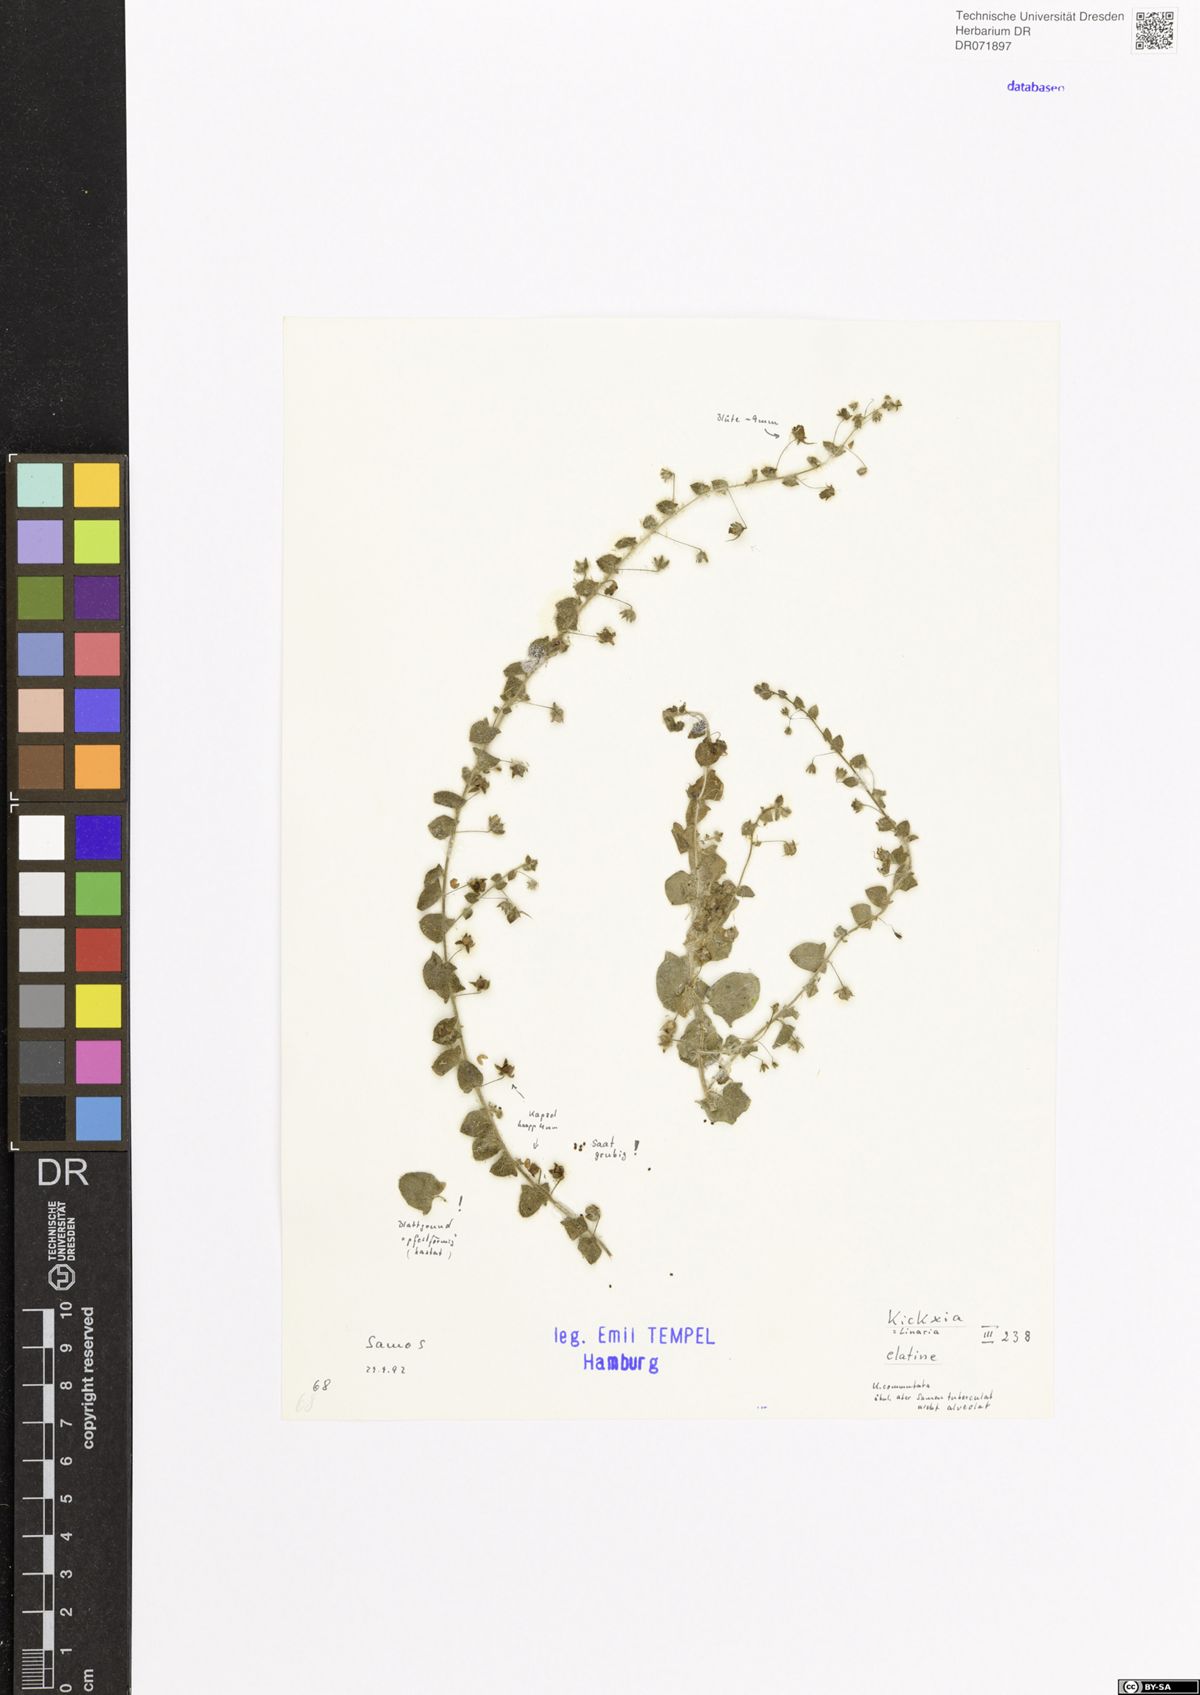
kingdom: Plantae
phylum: Tracheophyta
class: Magnoliopsida
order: Lamiales
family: Plantaginaceae
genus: Kickxia
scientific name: Kickxia elatine
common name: Sharp-leaved fluellen
